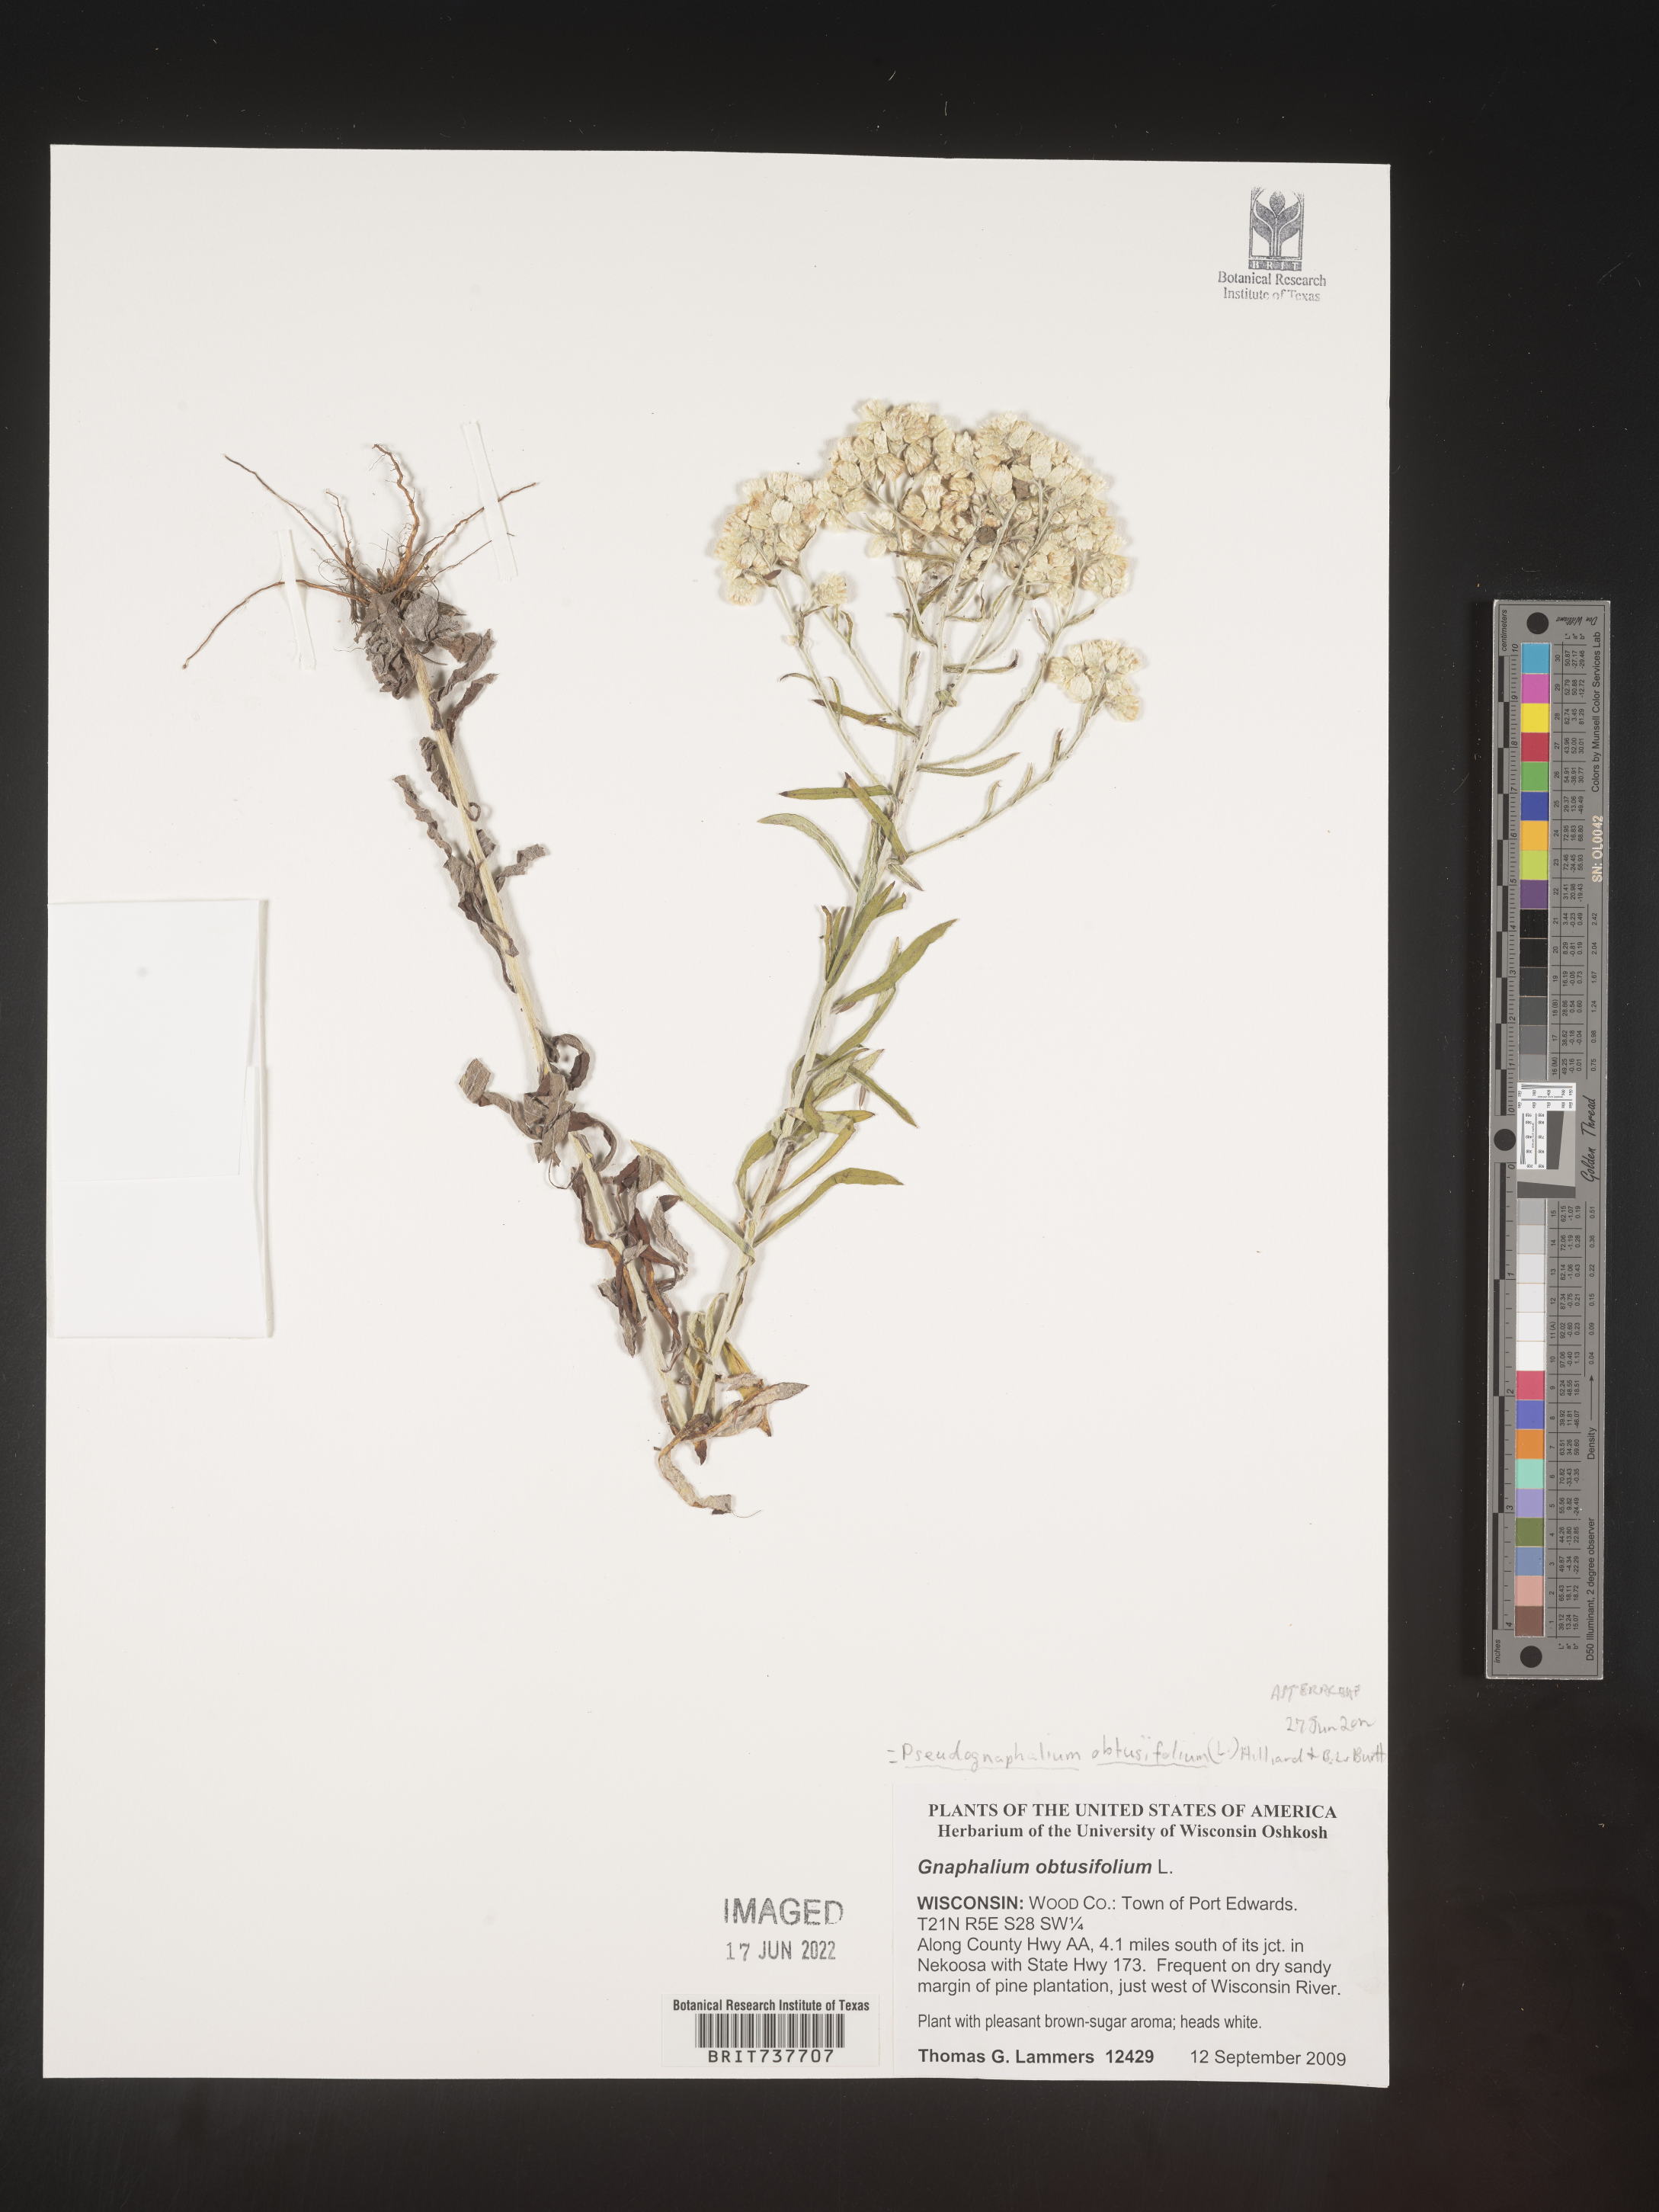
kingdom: Plantae
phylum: Tracheophyta
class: Magnoliopsida
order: Asterales
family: Asteraceae
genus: Pseudognaphalium
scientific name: Pseudognaphalium obtusifolium
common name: Eastern rabbit-tobacco
